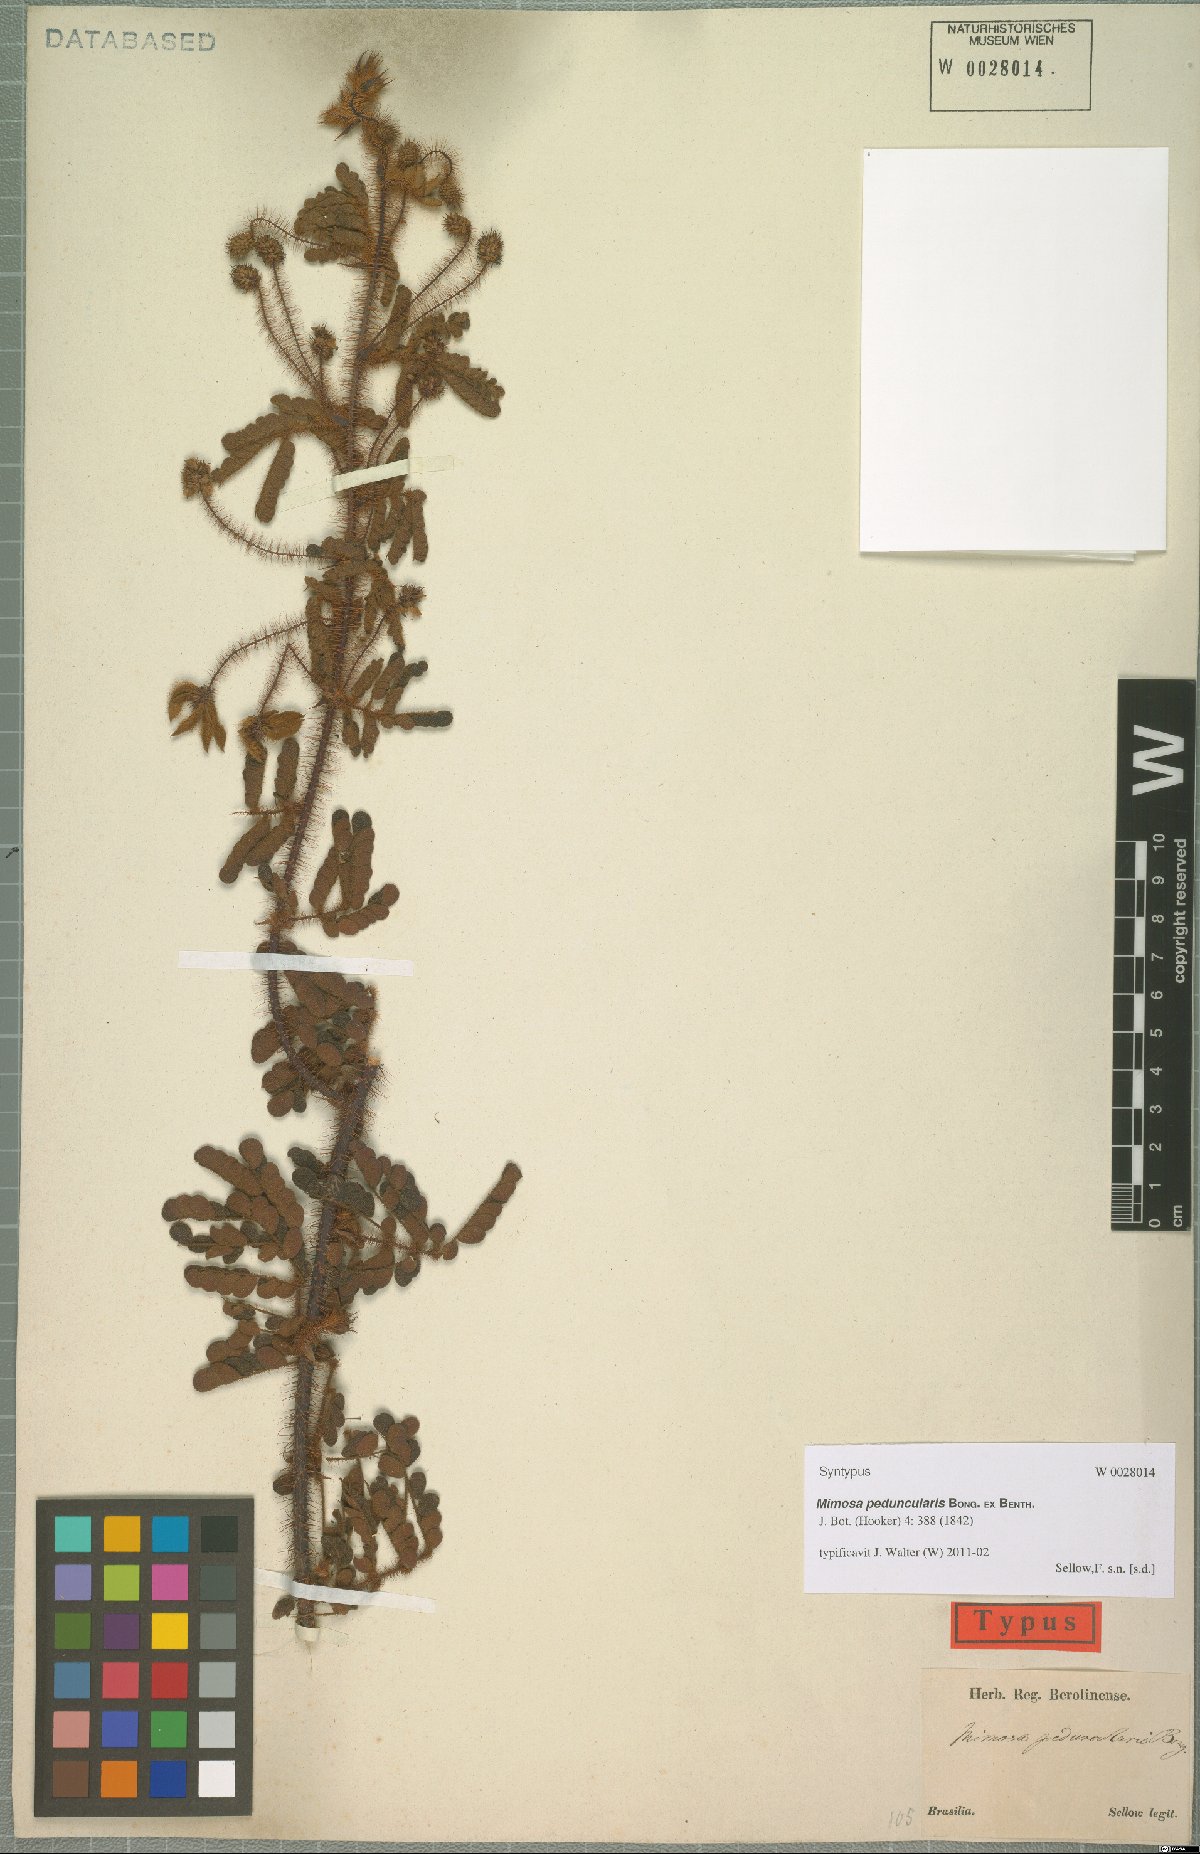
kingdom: Plantae
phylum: Tracheophyta
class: Magnoliopsida
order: Fabales
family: Fabaceae
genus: Mimosa
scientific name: Mimosa peduncularis
